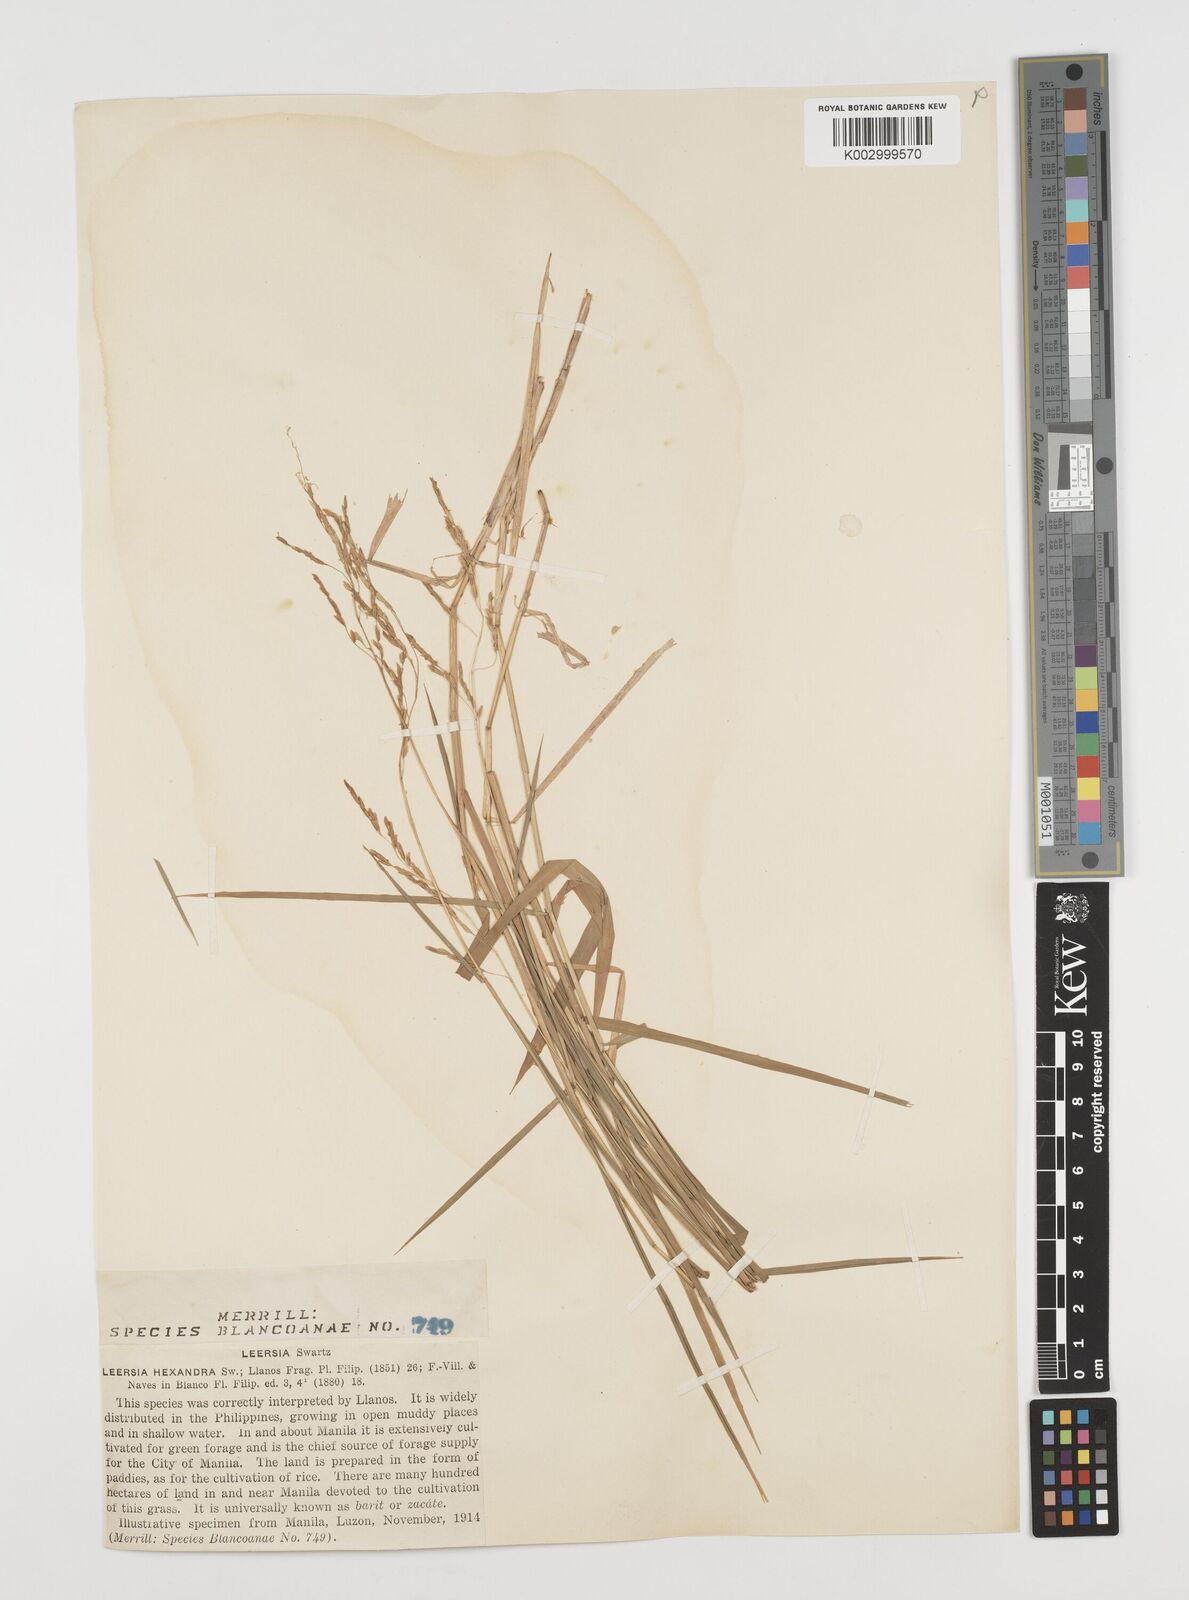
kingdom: Plantae
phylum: Tracheophyta
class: Liliopsida
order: Poales
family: Poaceae
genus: Leersia
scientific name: Leersia hexandra
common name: Southern cut grass
